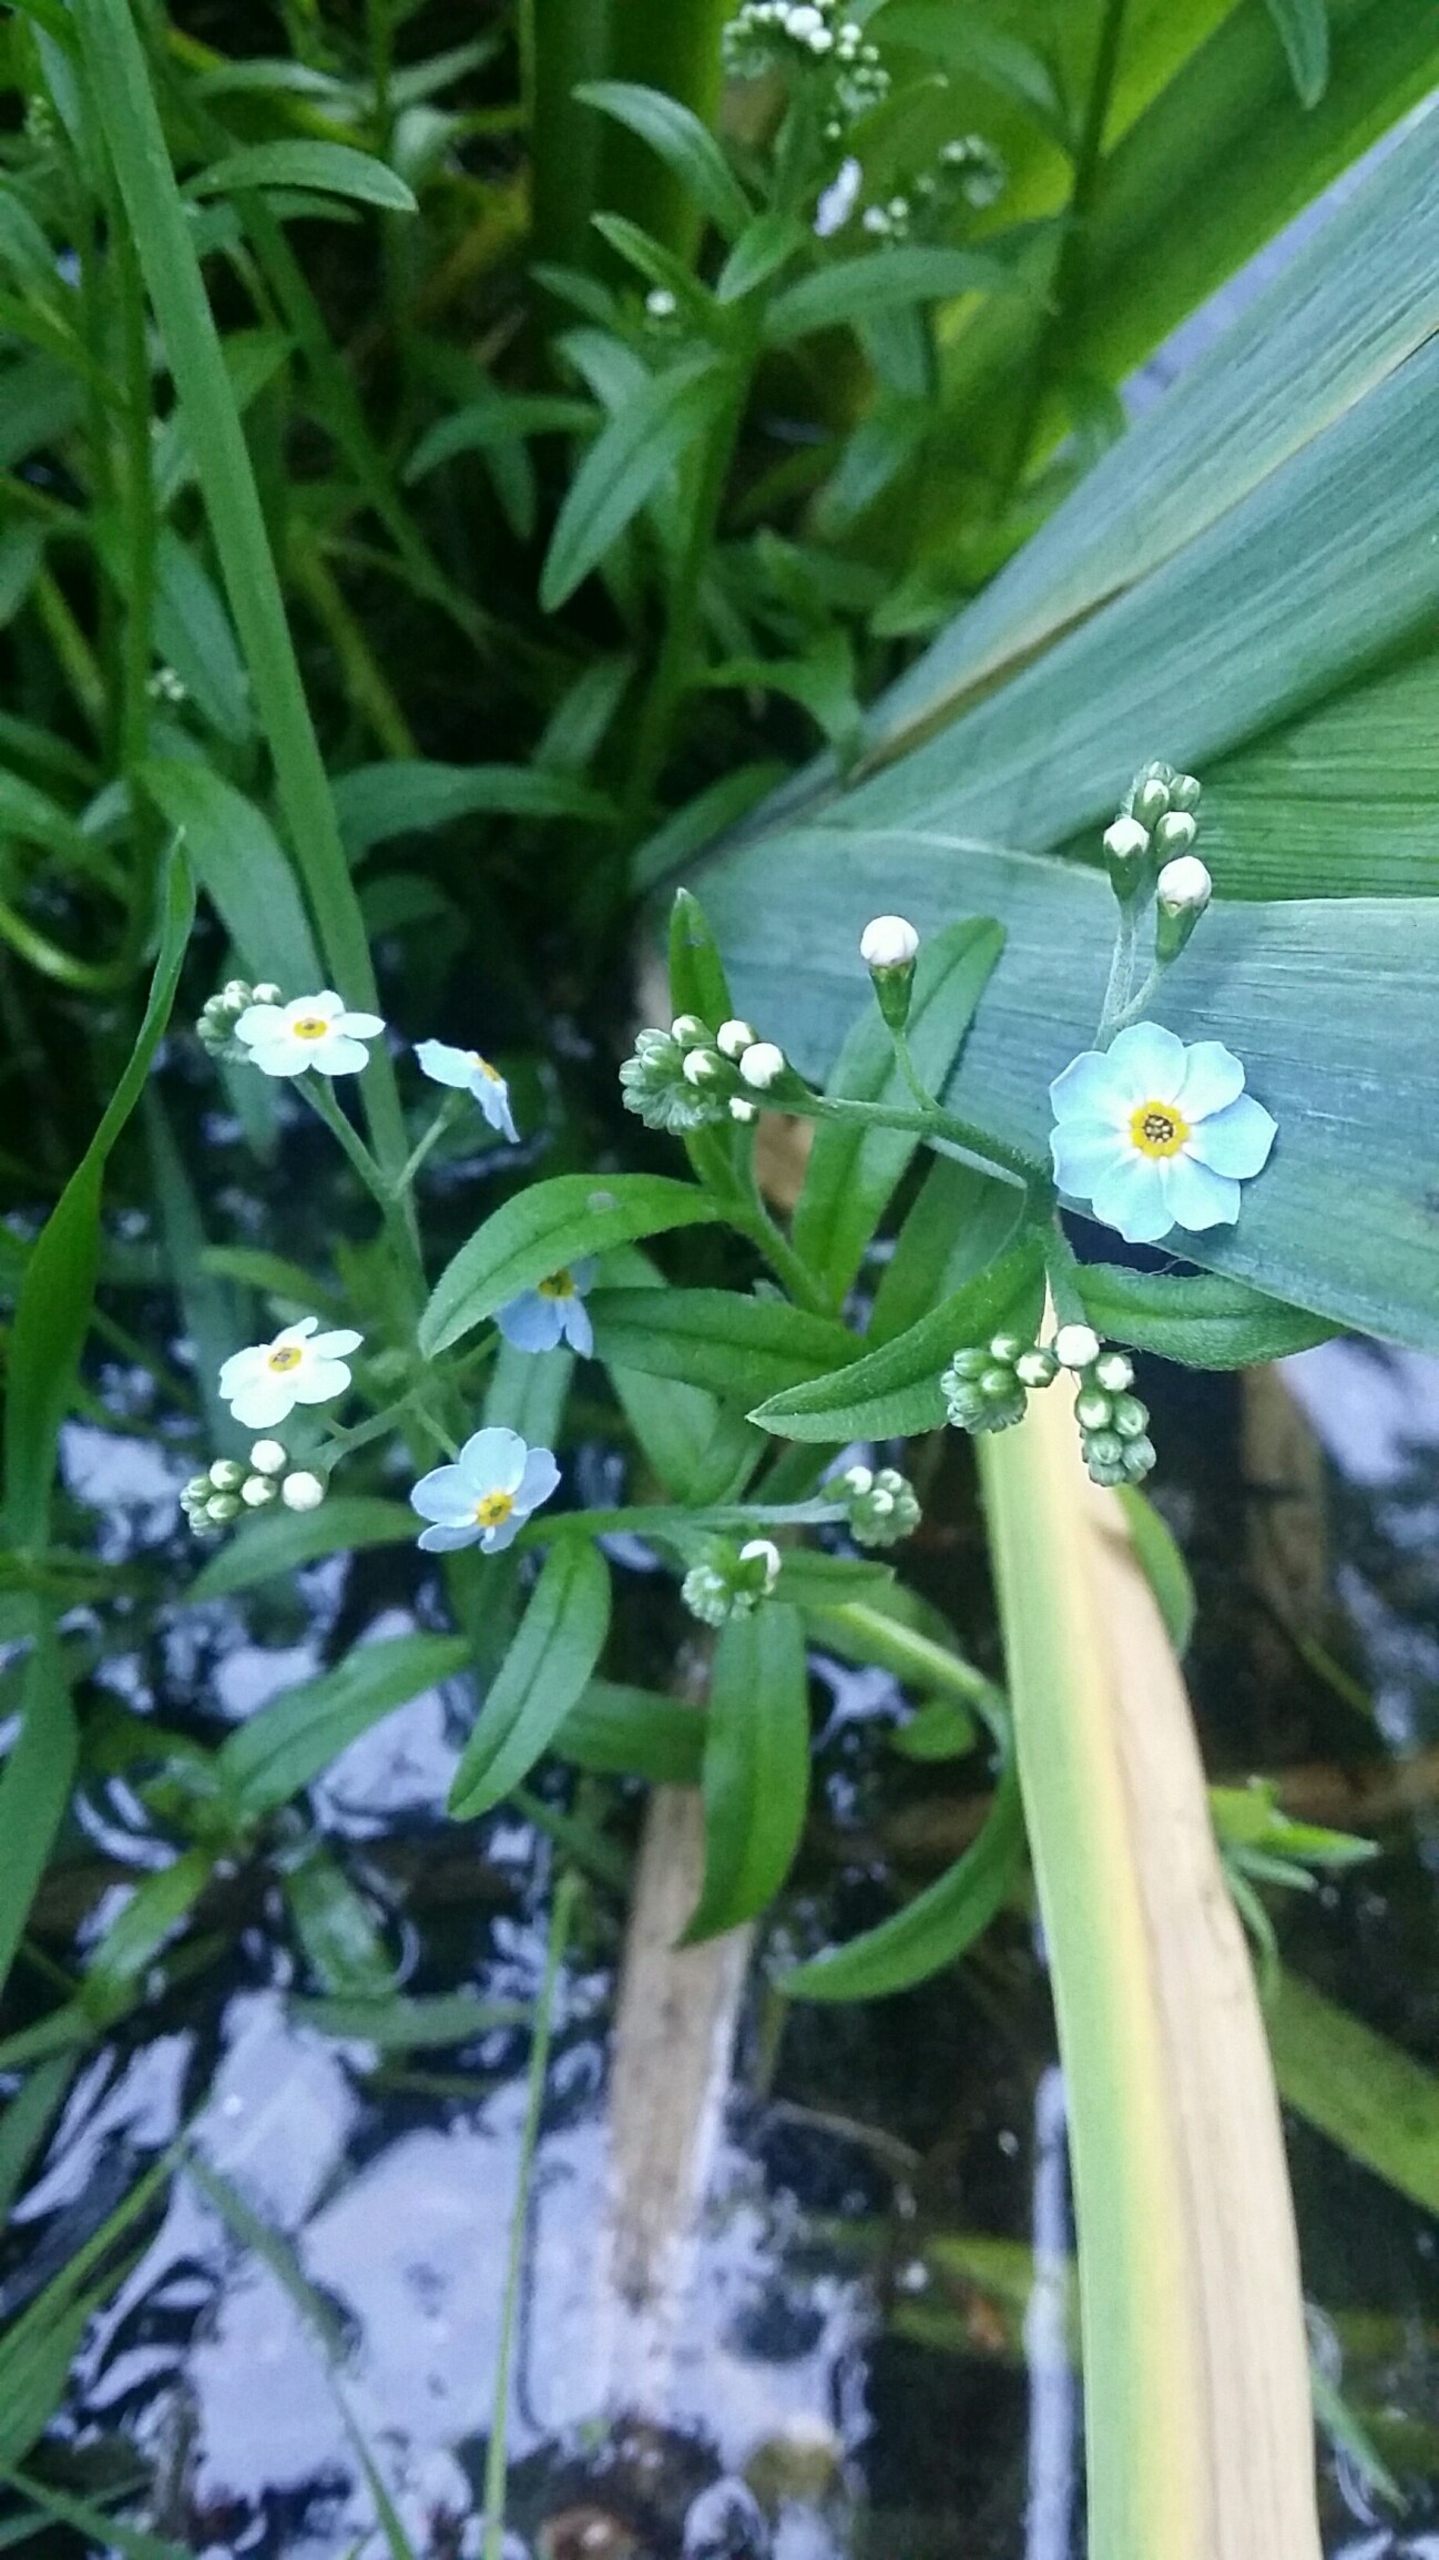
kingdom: Plantae
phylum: Tracheophyta
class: Magnoliopsida
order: Boraginales
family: Boraginaceae
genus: Myosotis
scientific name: Myosotis scorpioides
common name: Eng-forglemmigej
